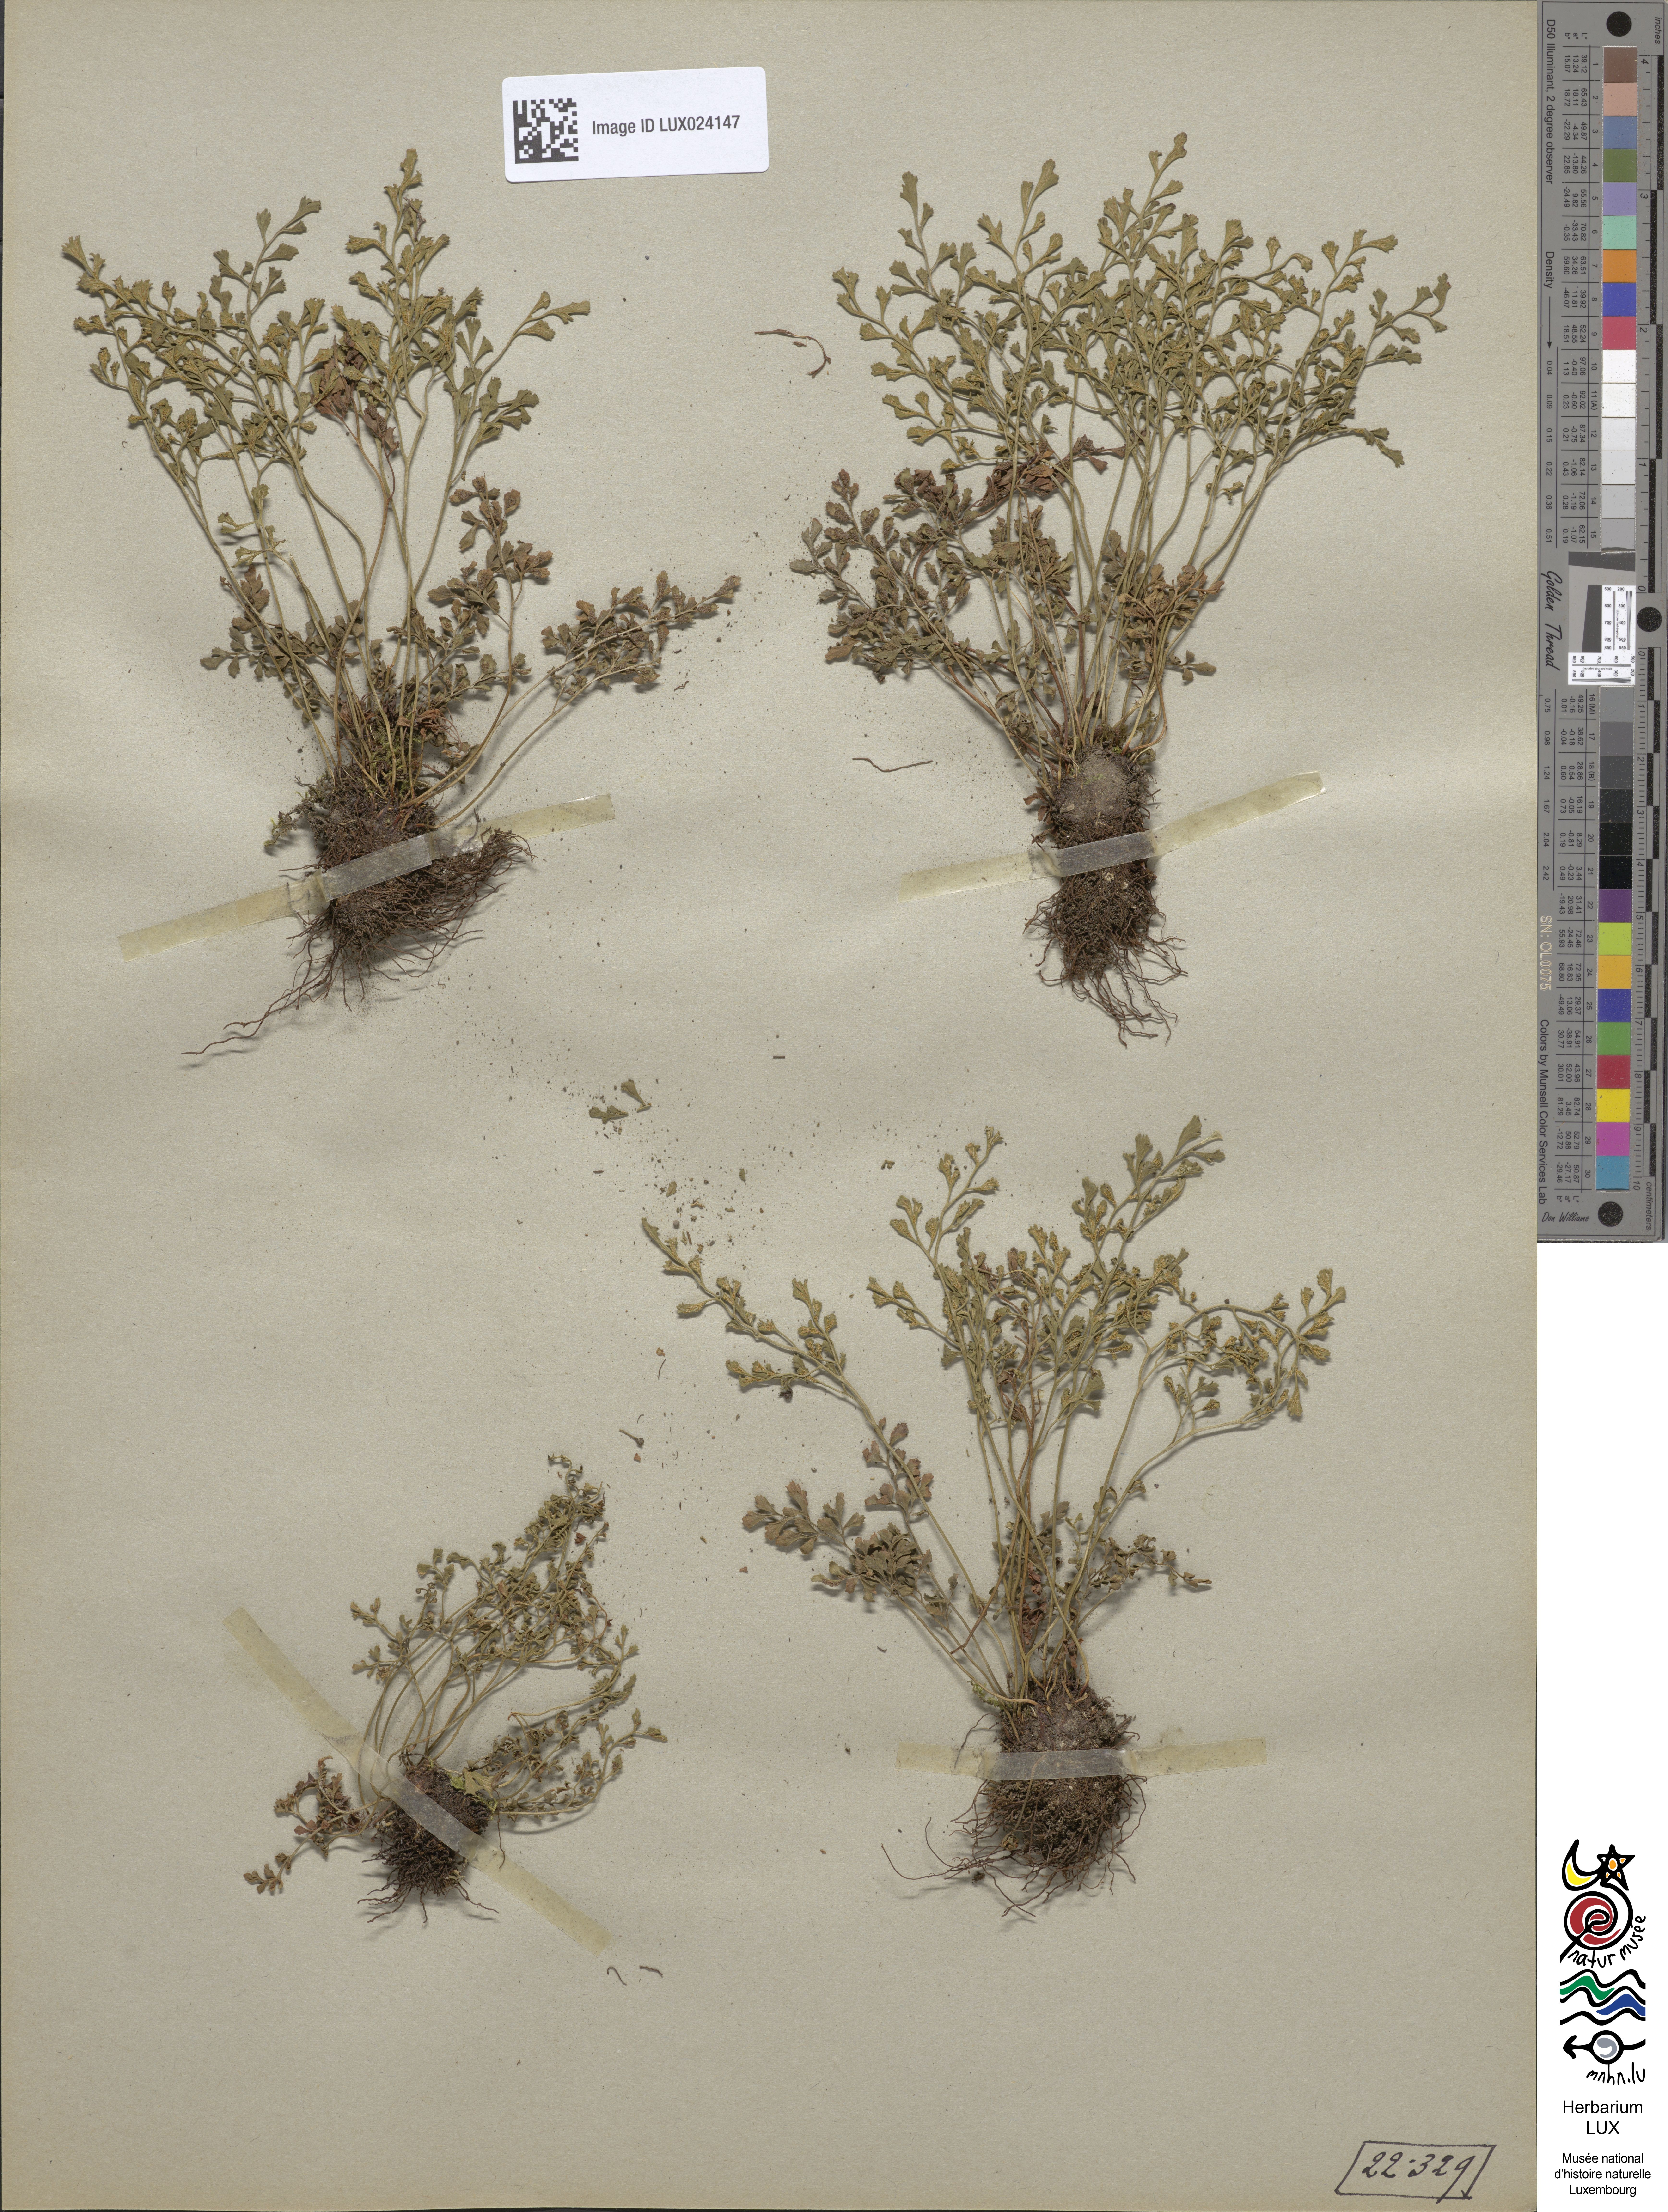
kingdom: Plantae
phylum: Tracheophyta
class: Polypodiopsida
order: Polypodiales
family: Aspleniaceae
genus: Asplenium
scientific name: Asplenium ruta-muraria
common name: Wall-rue
